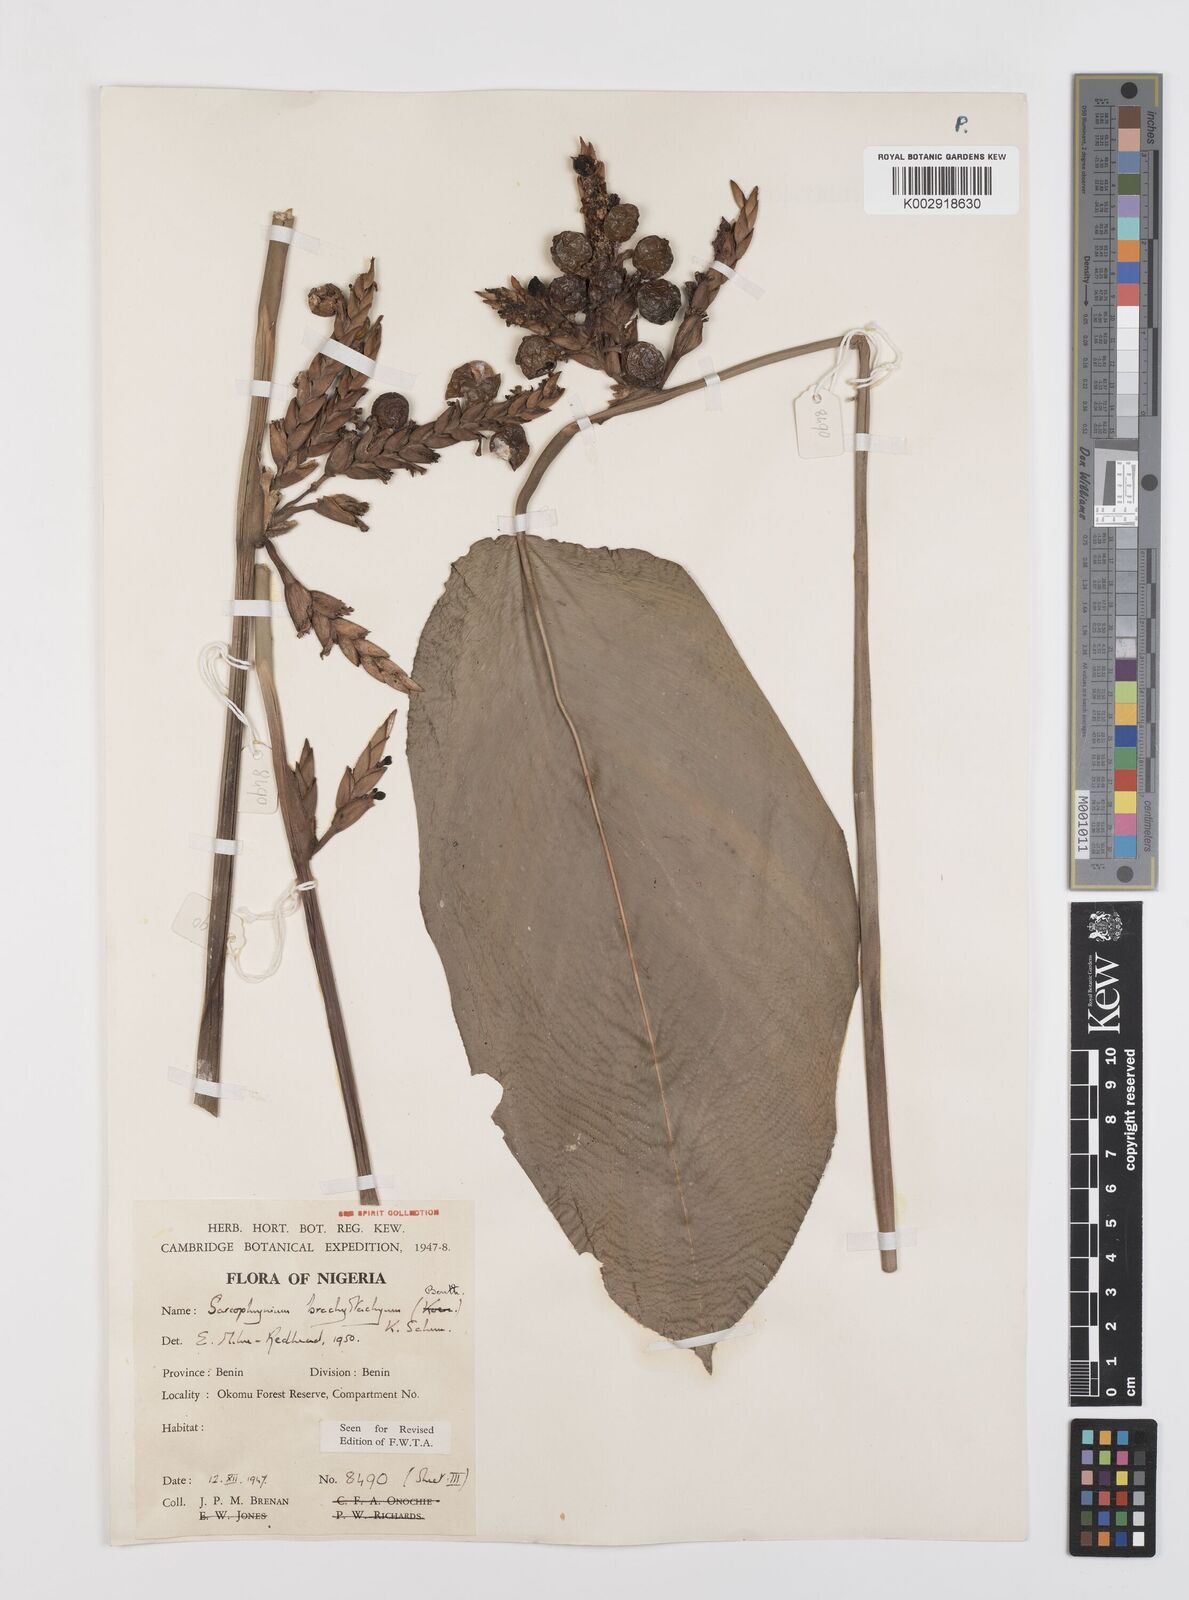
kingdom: Plantae
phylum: Tracheophyta
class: Liliopsida
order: Zingiberales
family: Marantaceae
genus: Sarcophrynium
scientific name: Sarcophrynium brachystachyum
